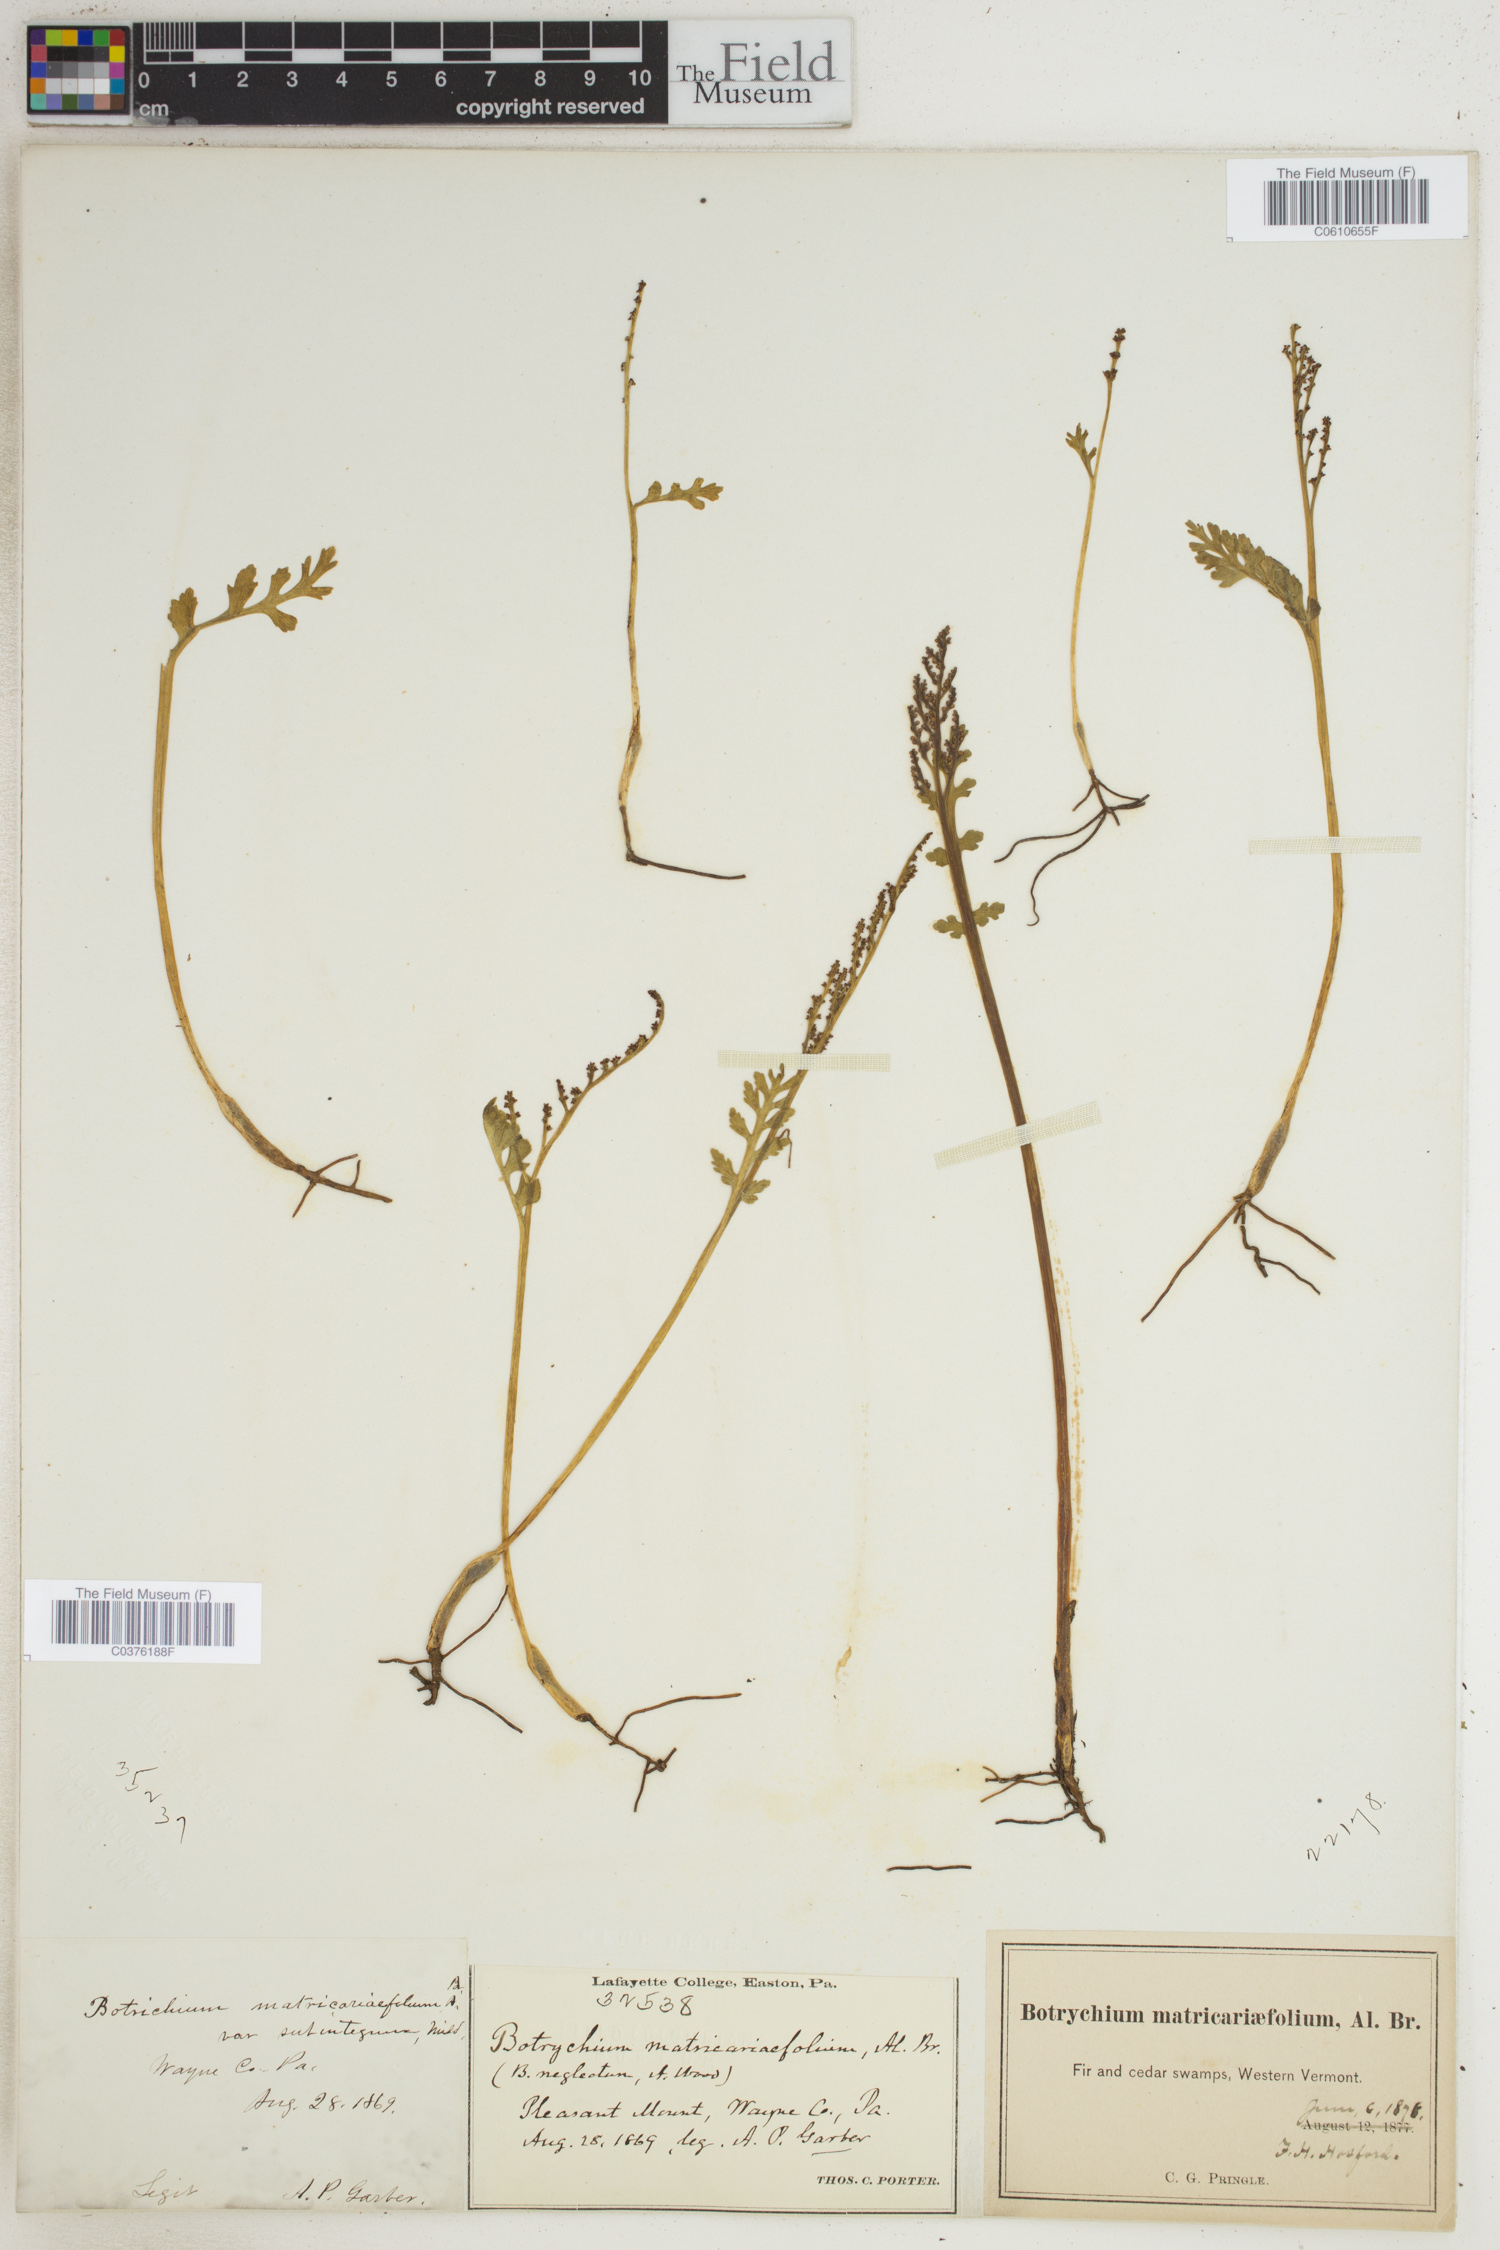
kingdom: Plantae
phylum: Tracheophyta
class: Polypodiopsida
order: Ophioglossales
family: Ophioglossaceae
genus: Botrychium
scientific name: Botrychium matricariifolium
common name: Branched moonwort
